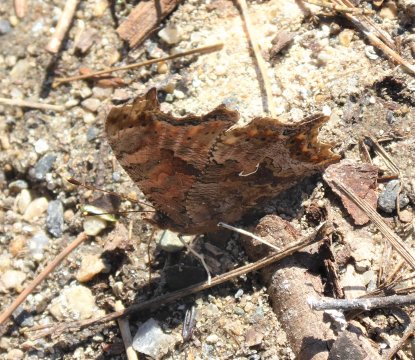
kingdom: Animalia
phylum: Arthropoda
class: Insecta
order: Lepidoptera
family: Nymphalidae
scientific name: Nymphalidae
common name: Brushfoots
